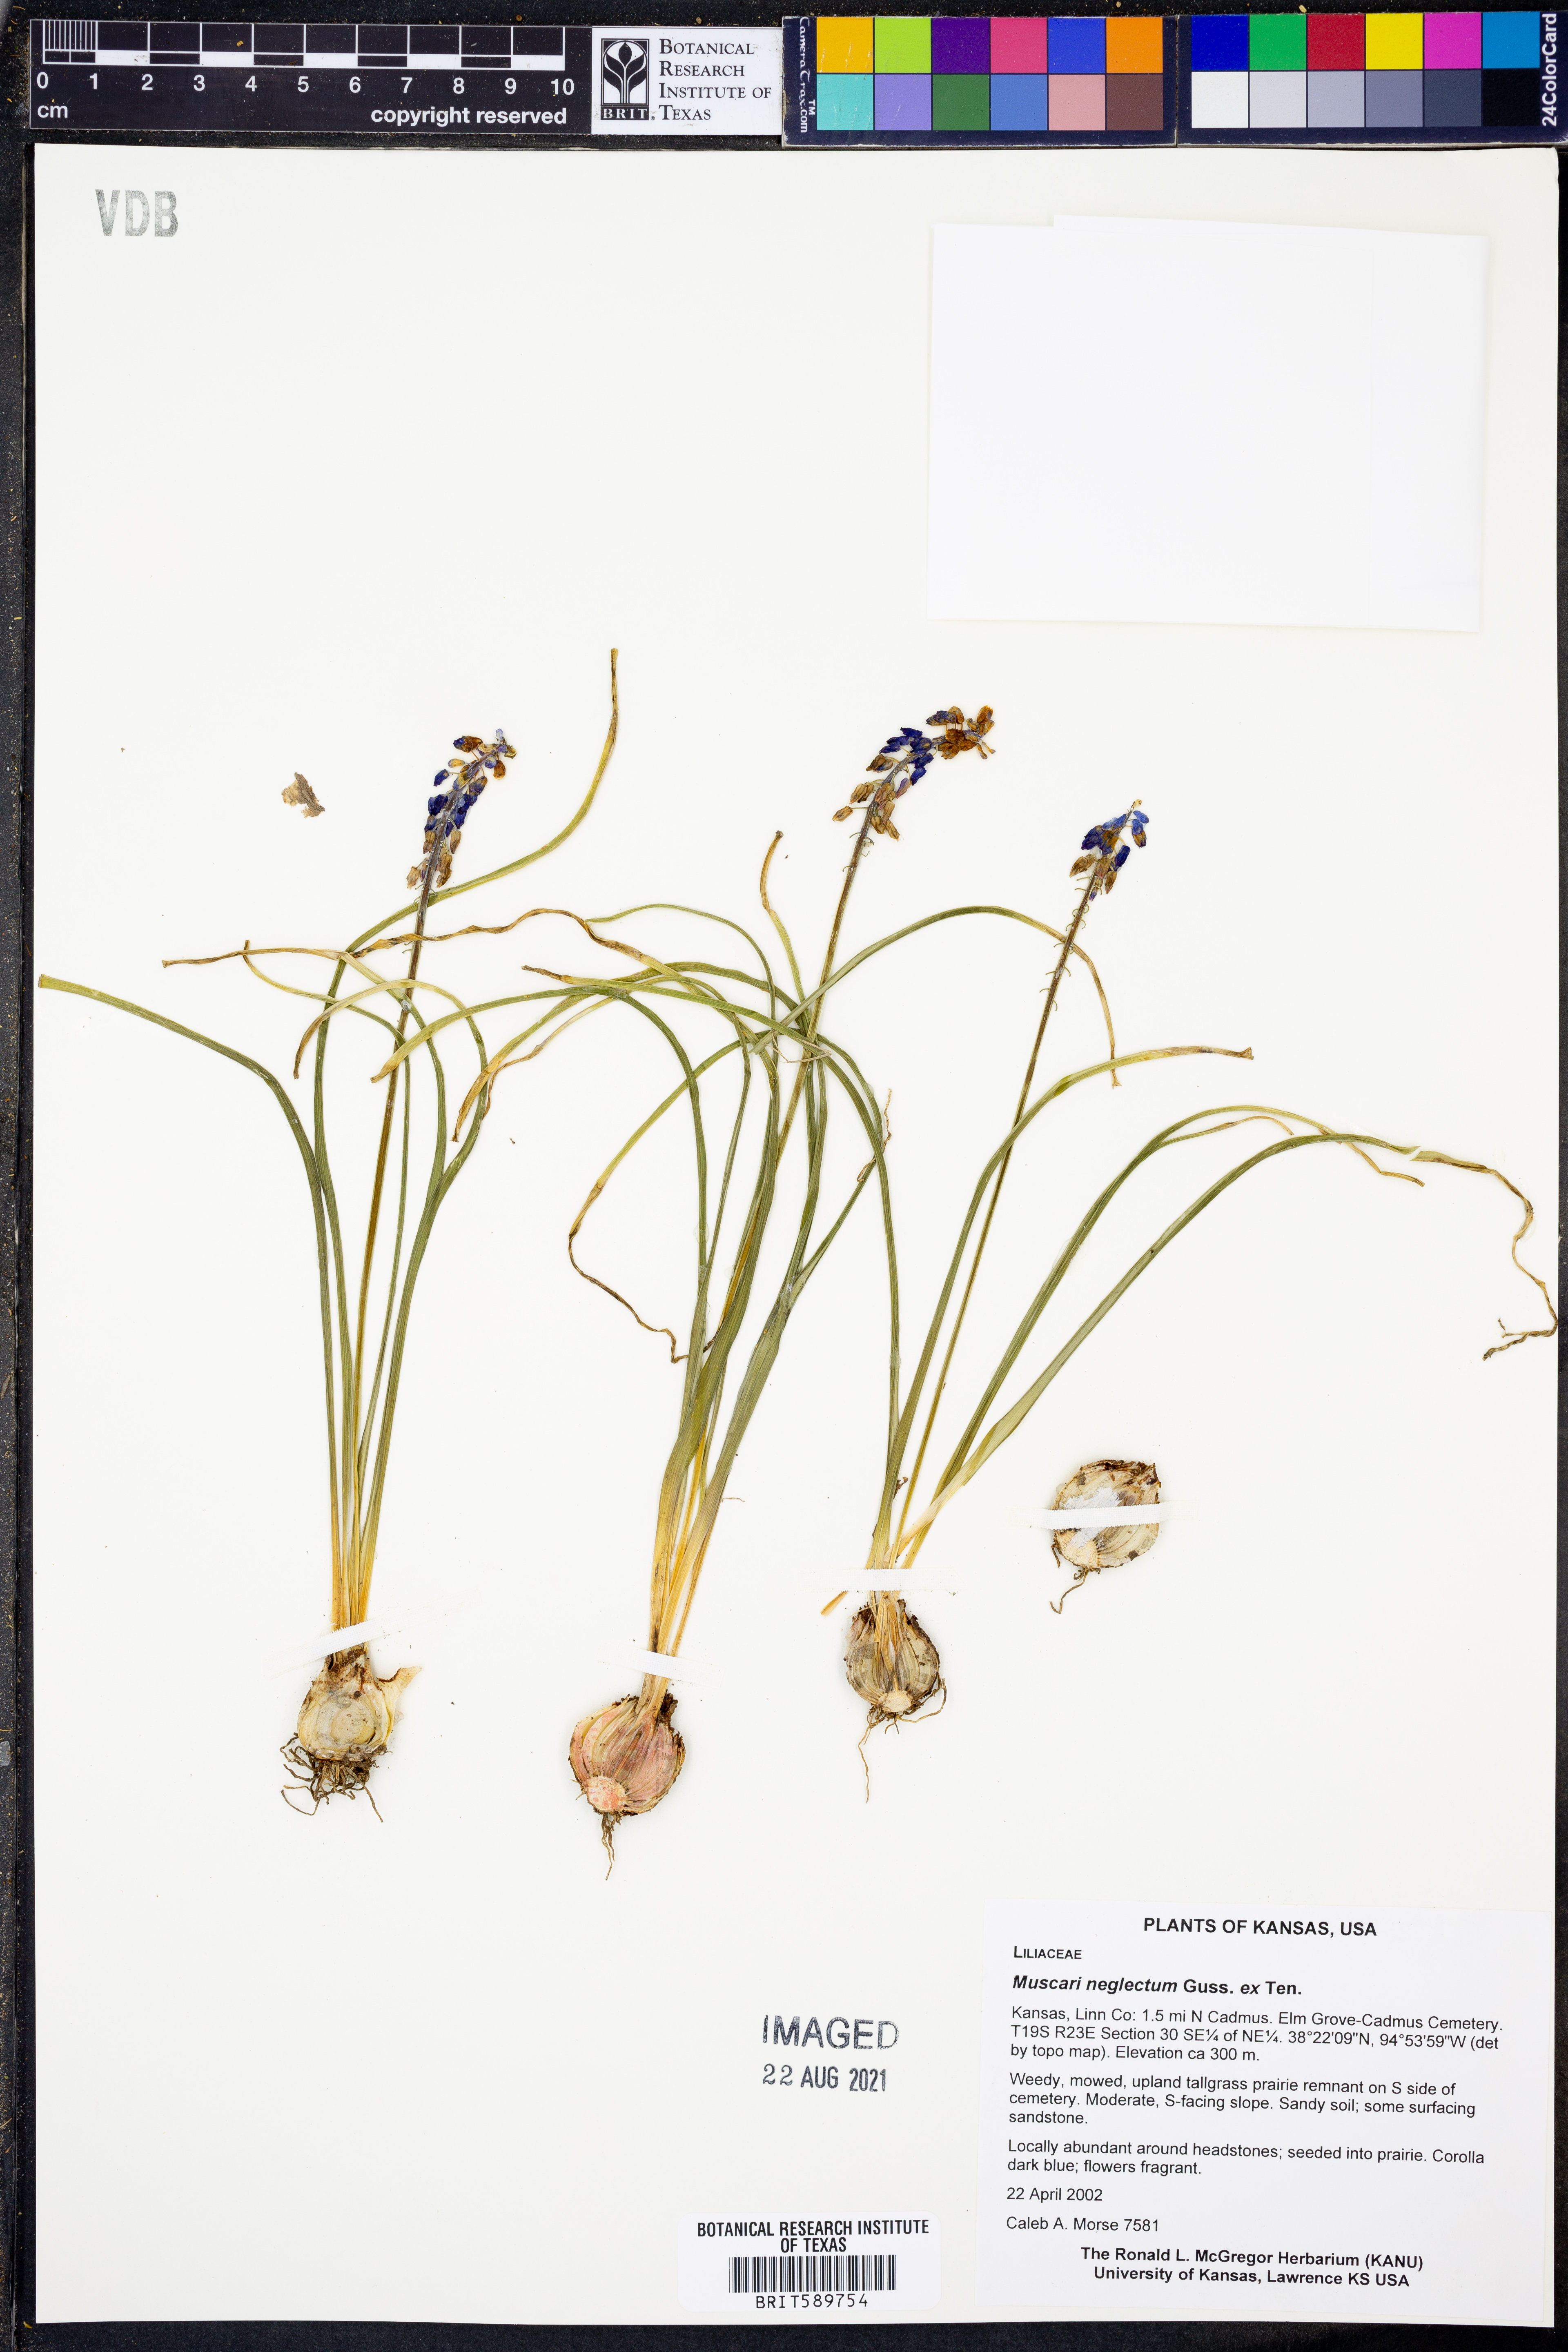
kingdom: Plantae
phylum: Tracheophyta
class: Liliopsida
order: Asparagales
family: Asparagaceae
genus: Muscari
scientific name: Muscari neglectum
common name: Grape-hyacinth
